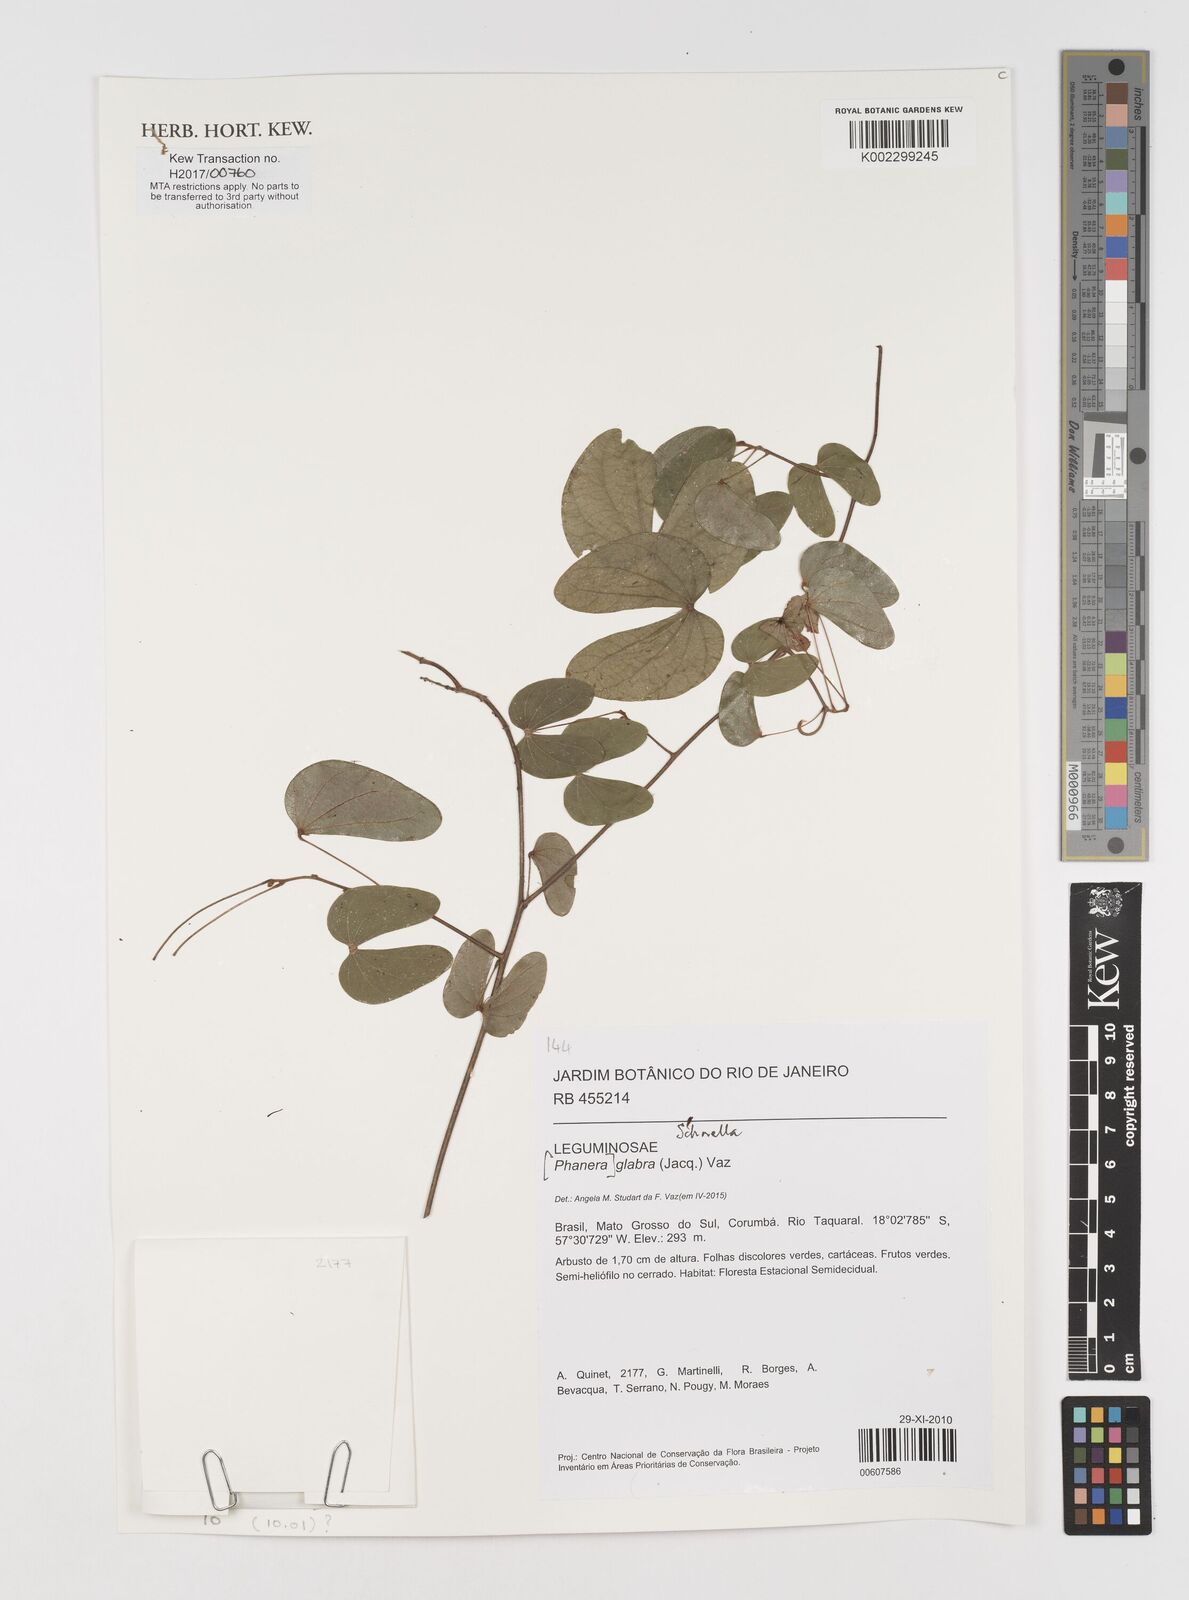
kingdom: Plantae
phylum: Tracheophyta
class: Magnoliopsida
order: Fabales
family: Fabaceae
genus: Schnella
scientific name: Schnella glabra
